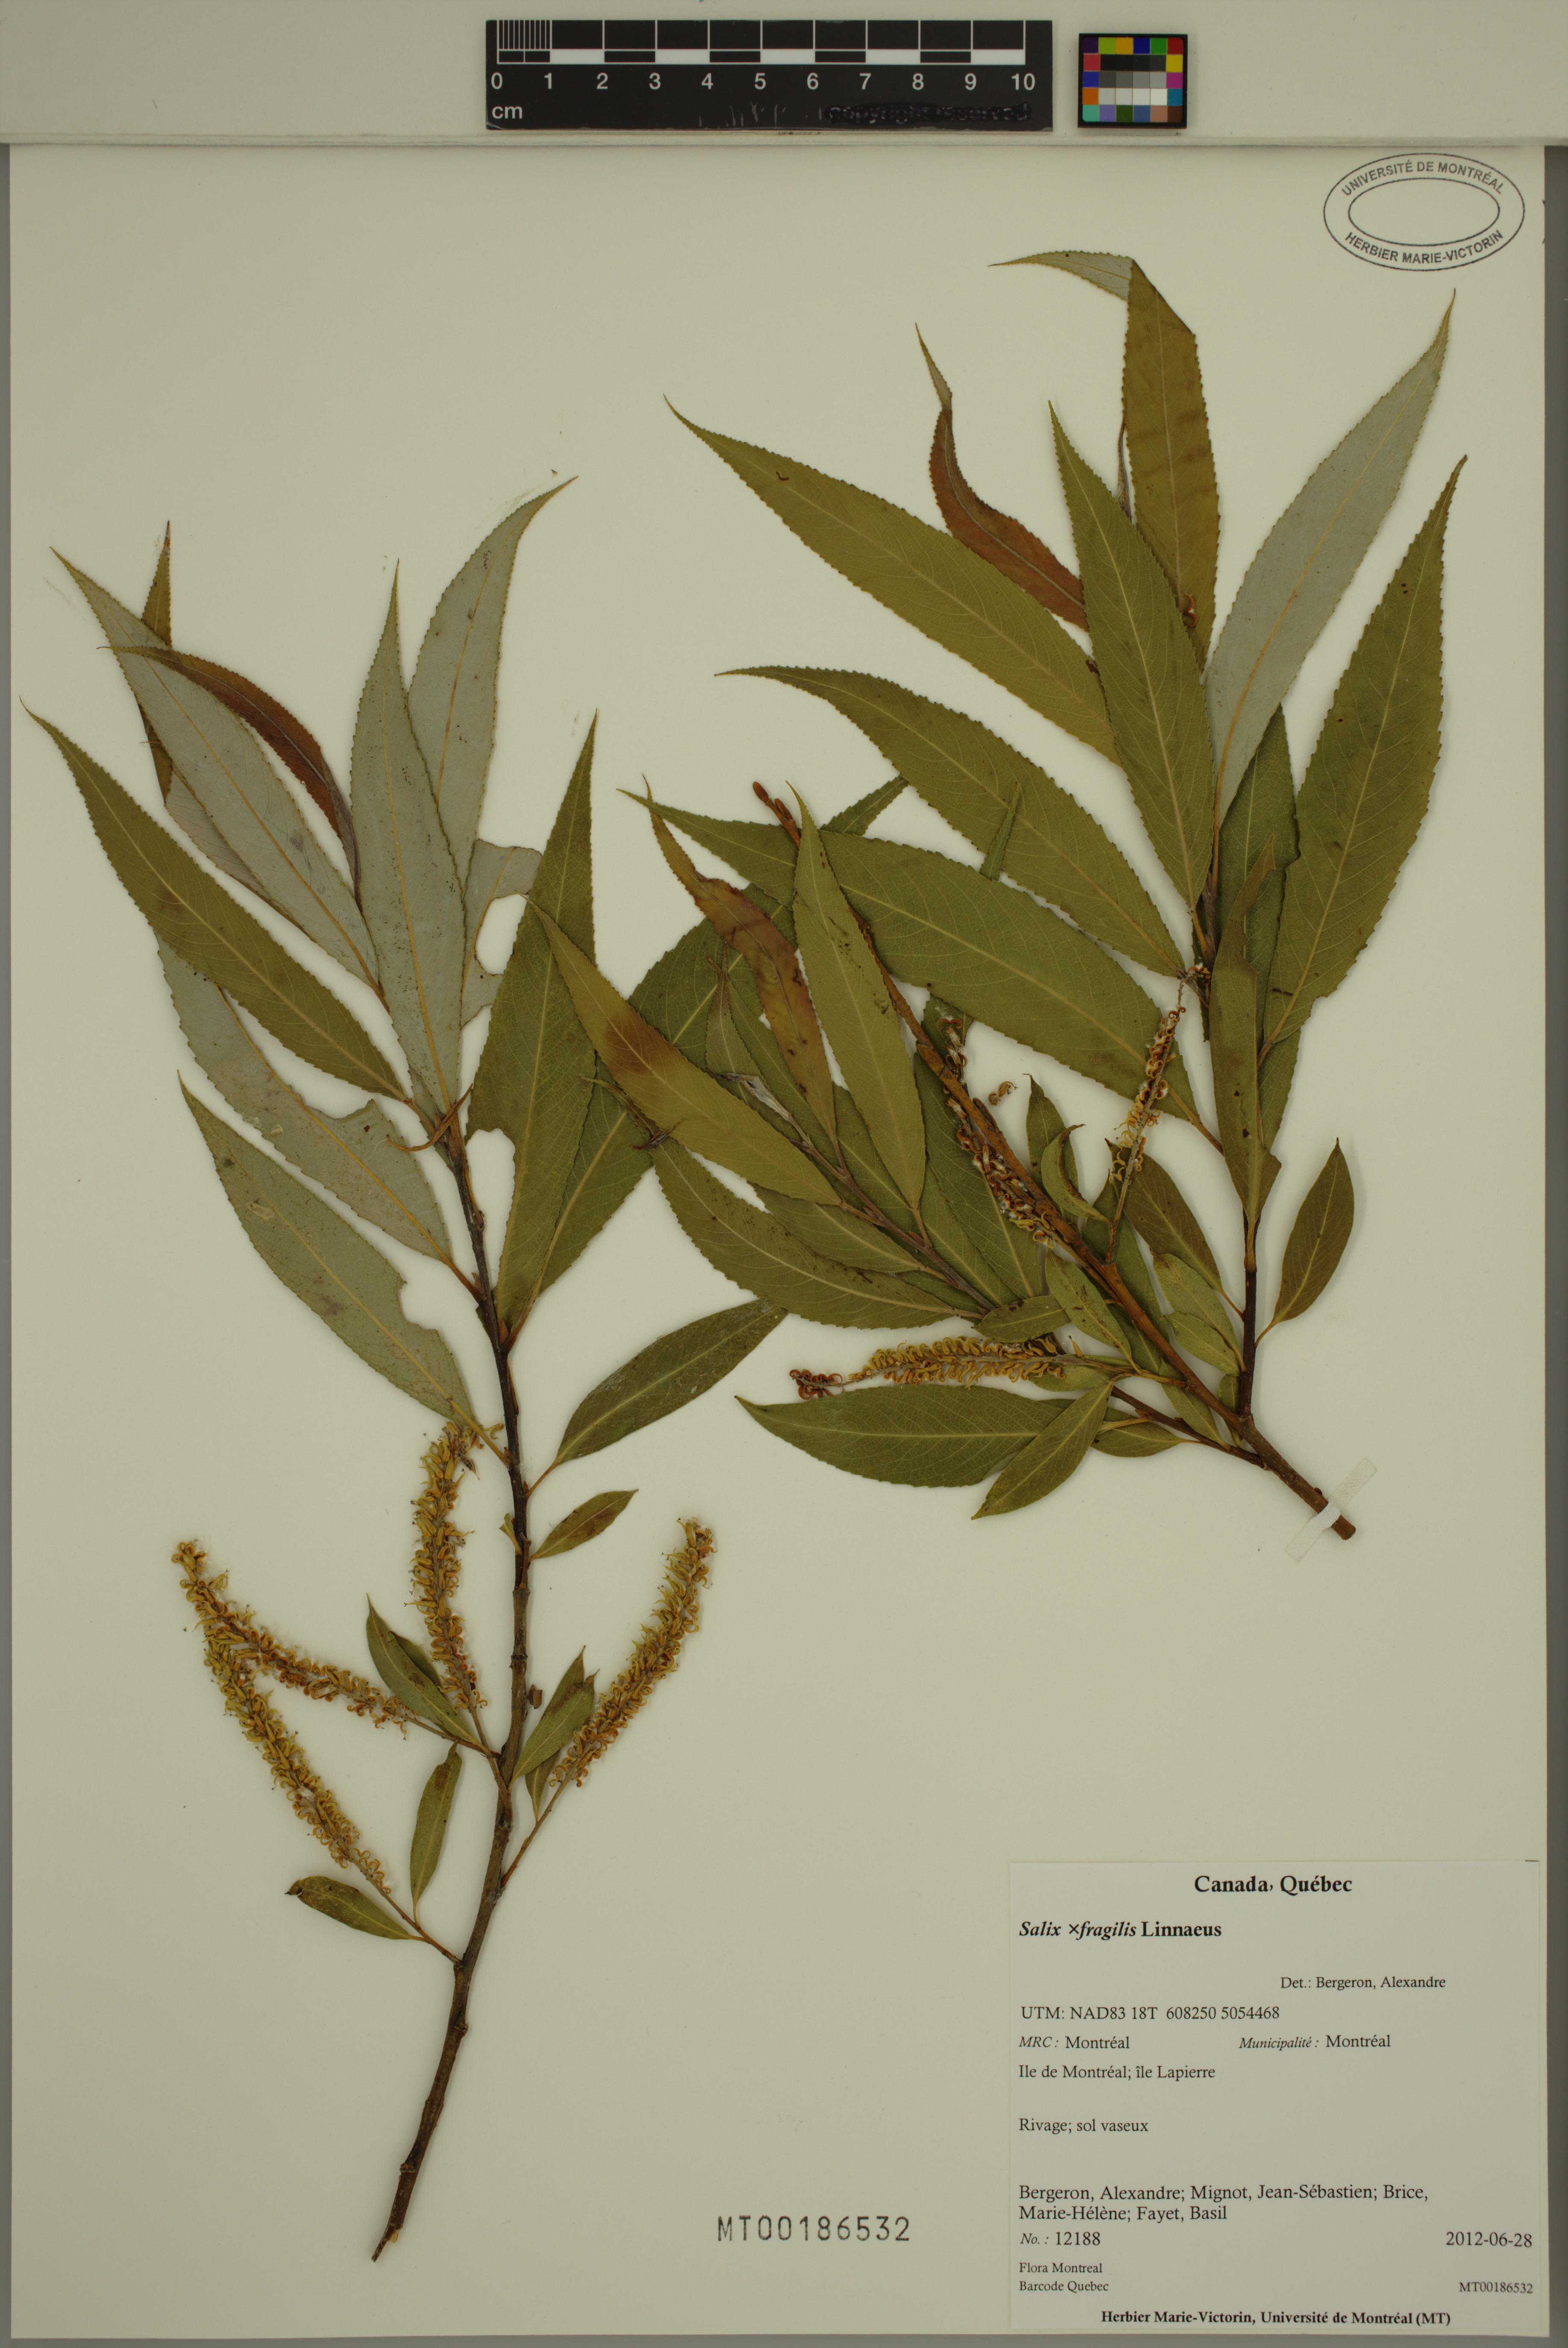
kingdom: Plantae
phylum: Tracheophyta
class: Magnoliopsida
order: Malpighiales
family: Salicaceae
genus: Salix
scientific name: Salix fragilis
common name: Crack willow
